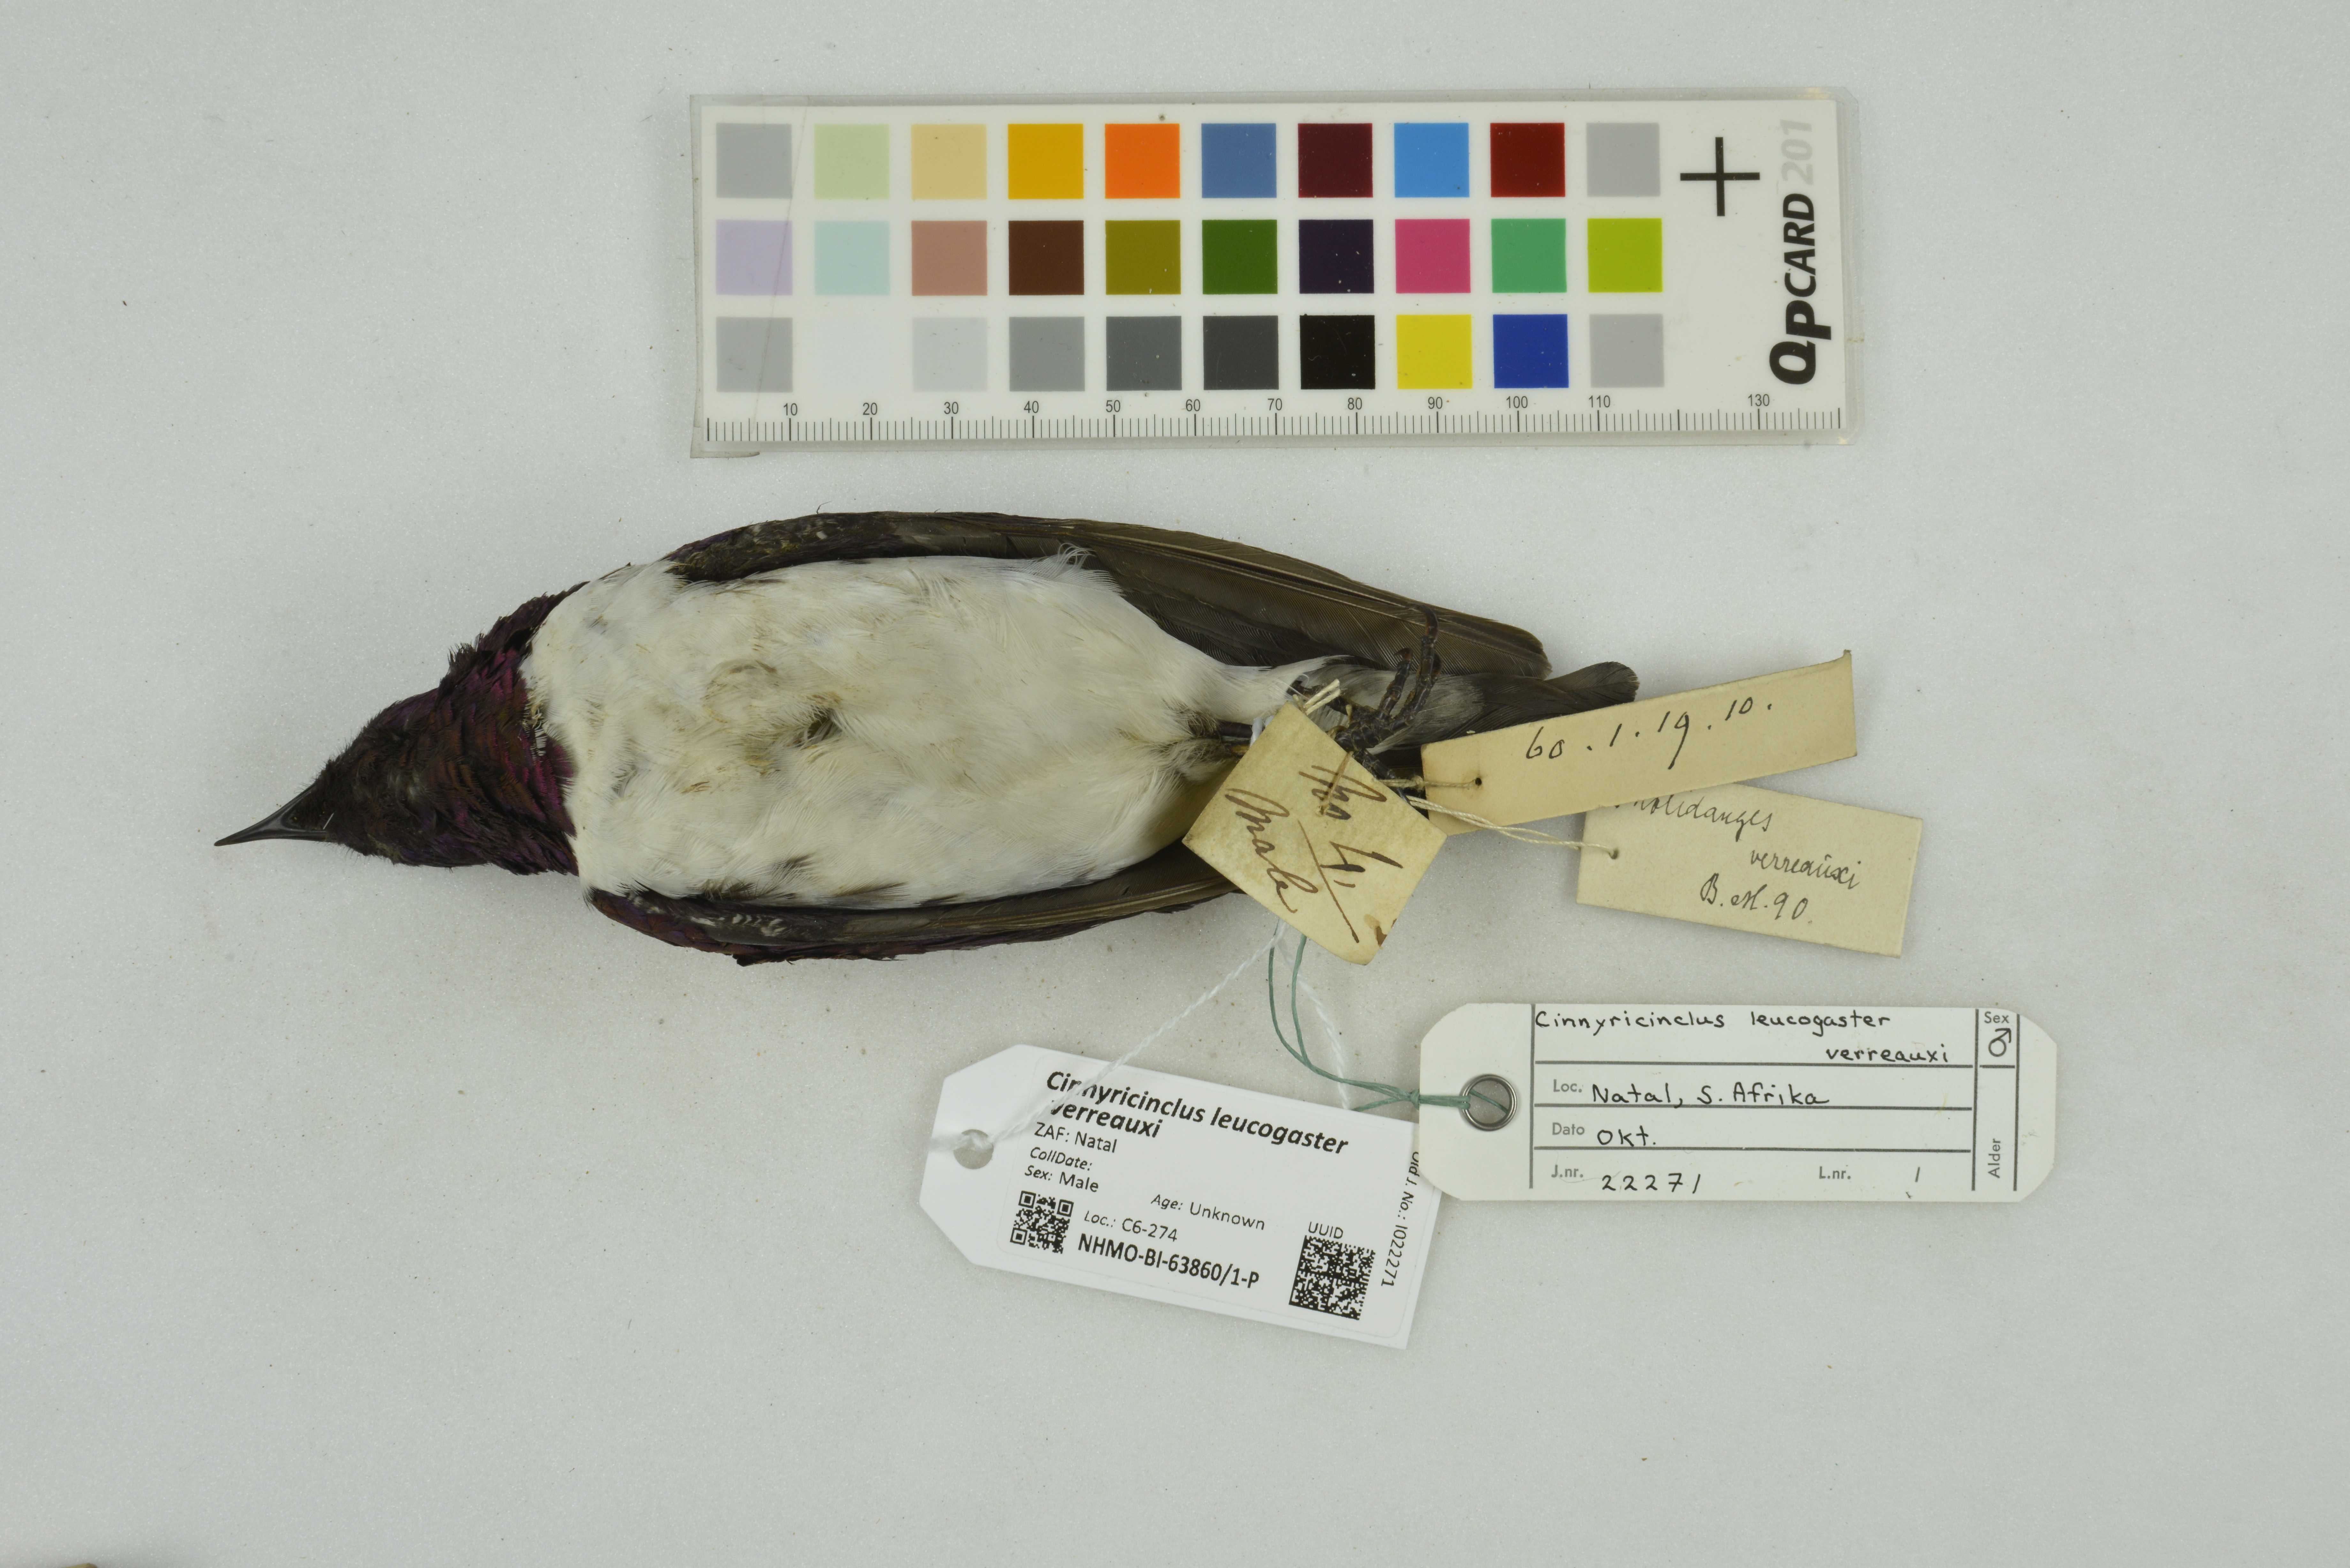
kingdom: Animalia
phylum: Chordata
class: Aves
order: Passeriformes
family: Sturnidae
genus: Cinnyricinclus
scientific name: Cinnyricinclus leucogaster
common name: Violet-backed starling
